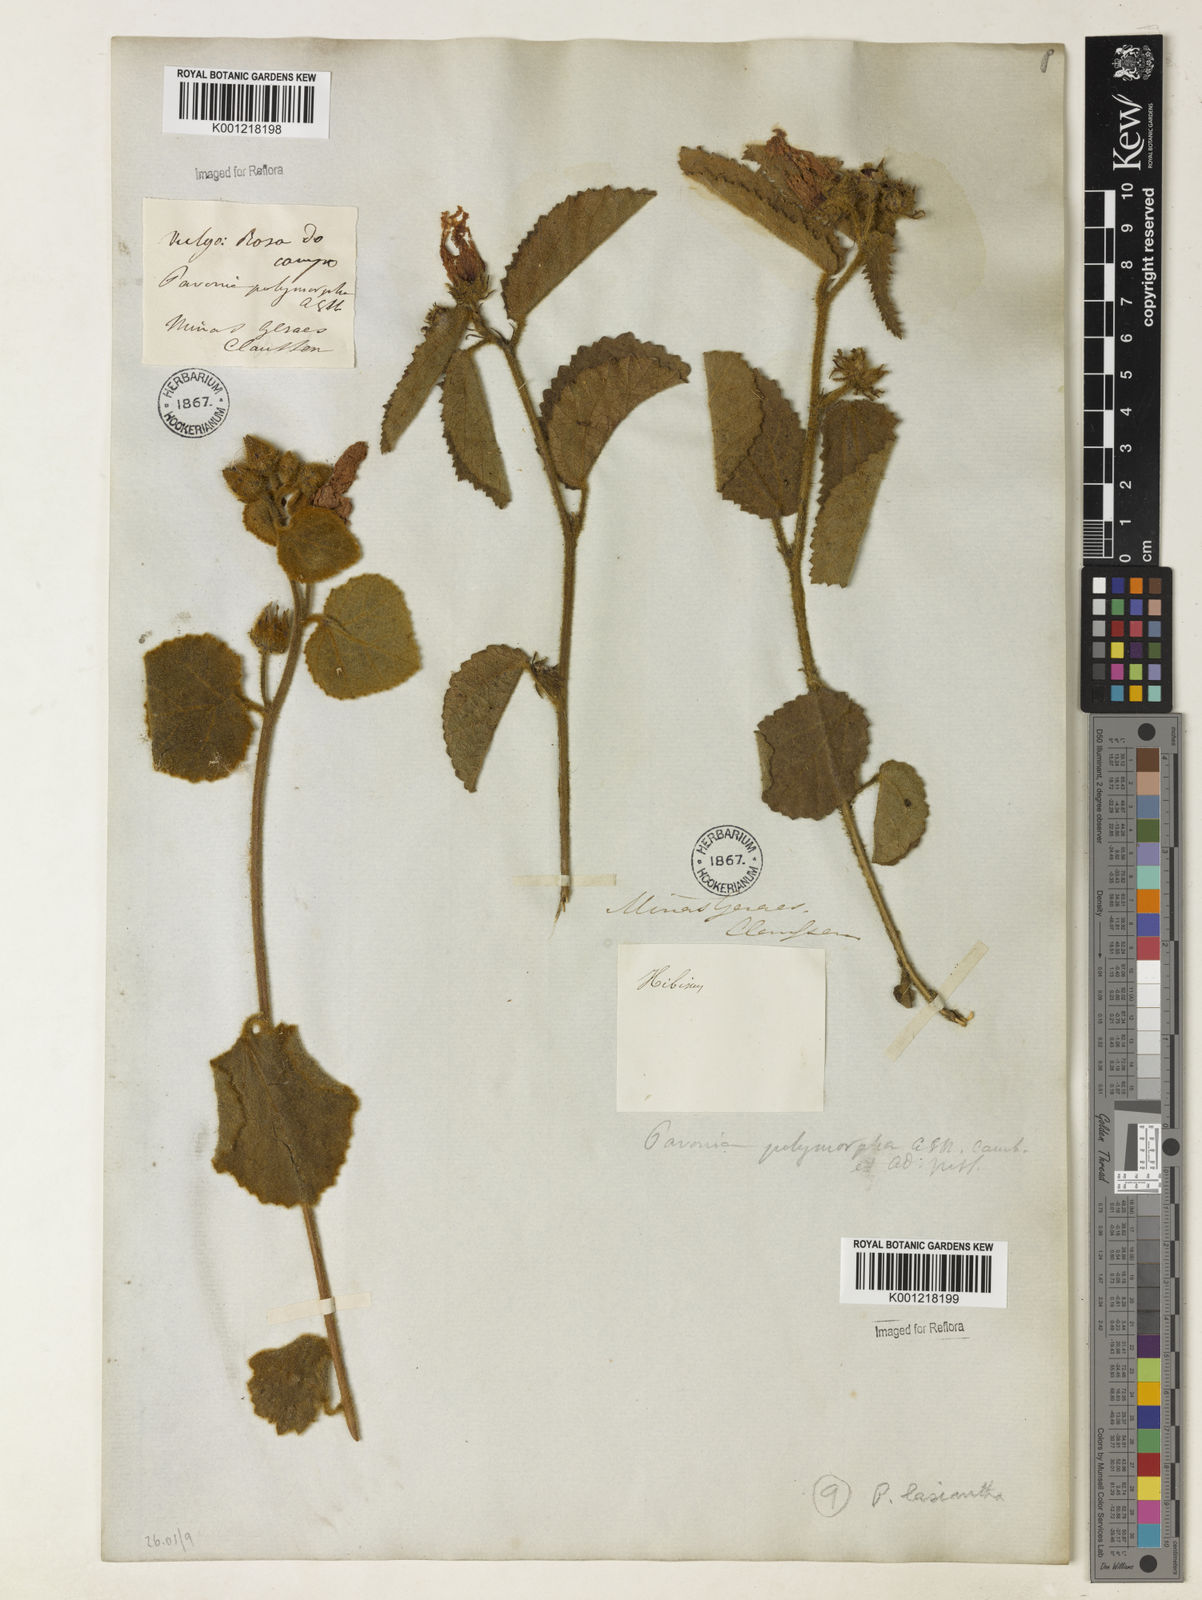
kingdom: Plantae
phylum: Tracheophyta
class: Magnoliopsida
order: Malvales
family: Malvaceae
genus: Peltaea
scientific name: Peltaea
